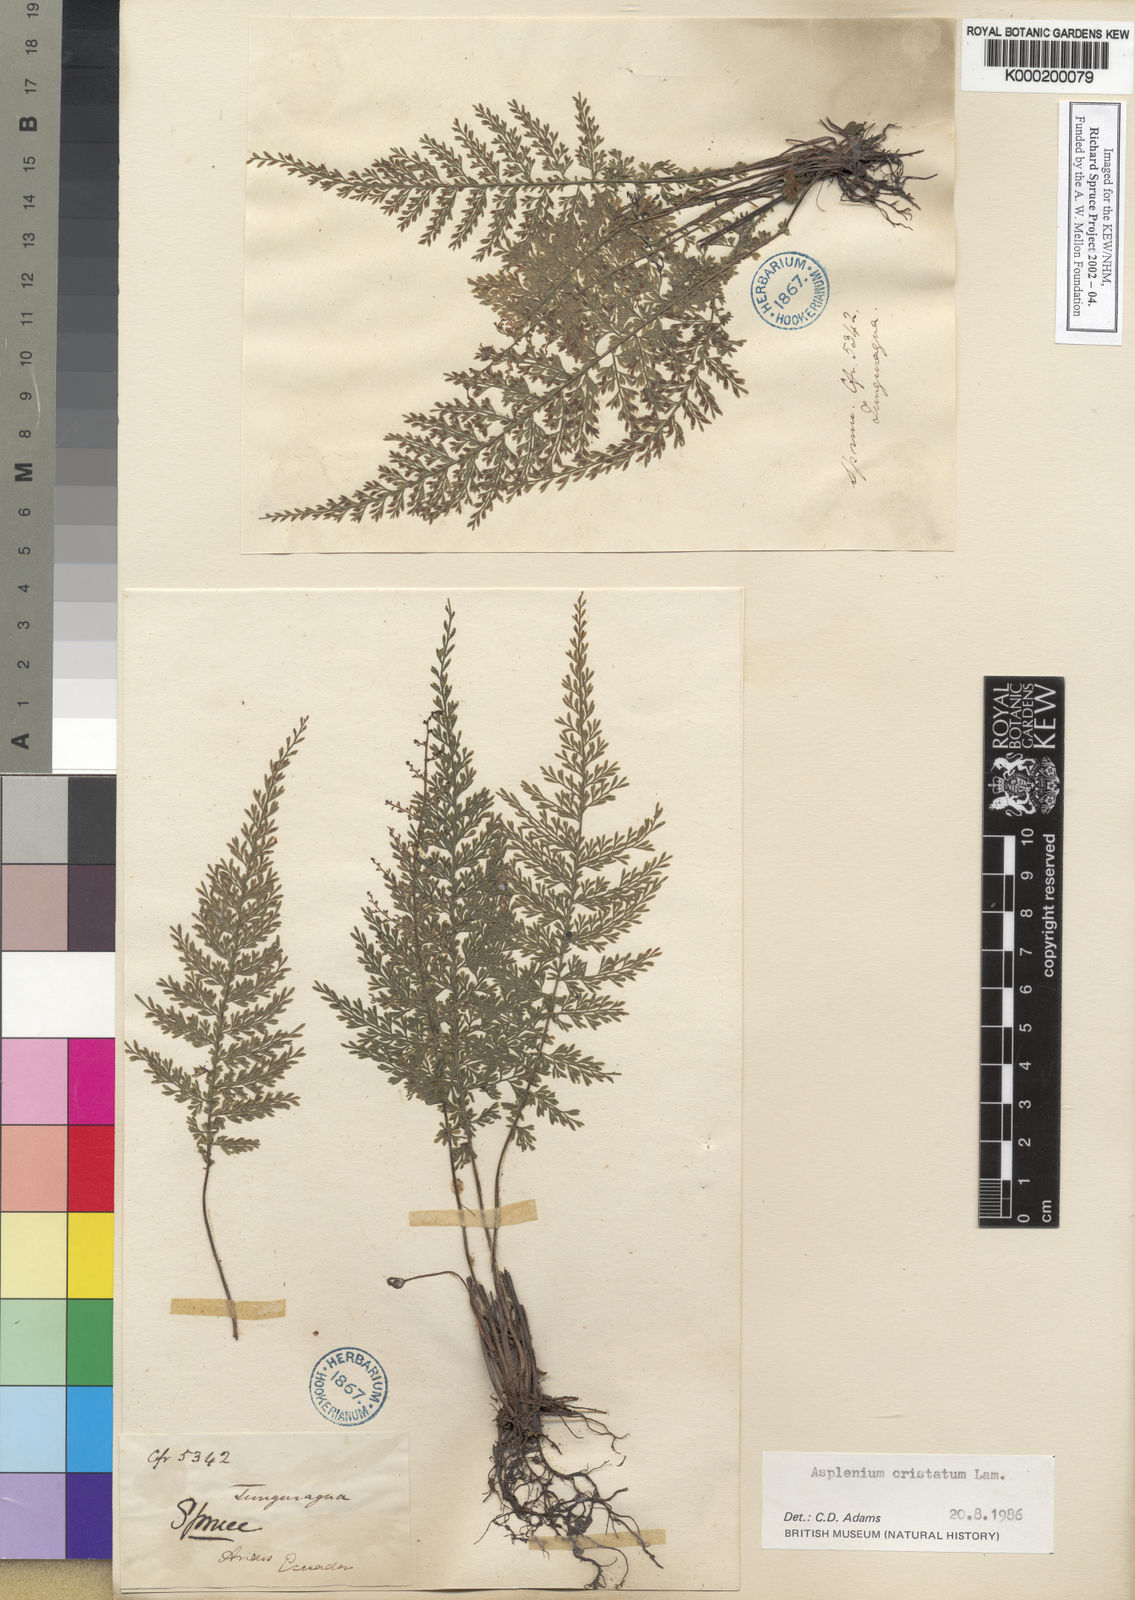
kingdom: Plantae
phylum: Tracheophyta
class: Polypodiopsida
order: Polypodiales
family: Aspleniaceae
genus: Asplenium
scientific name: Asplenium cristatum
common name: Parsley spleenwort
